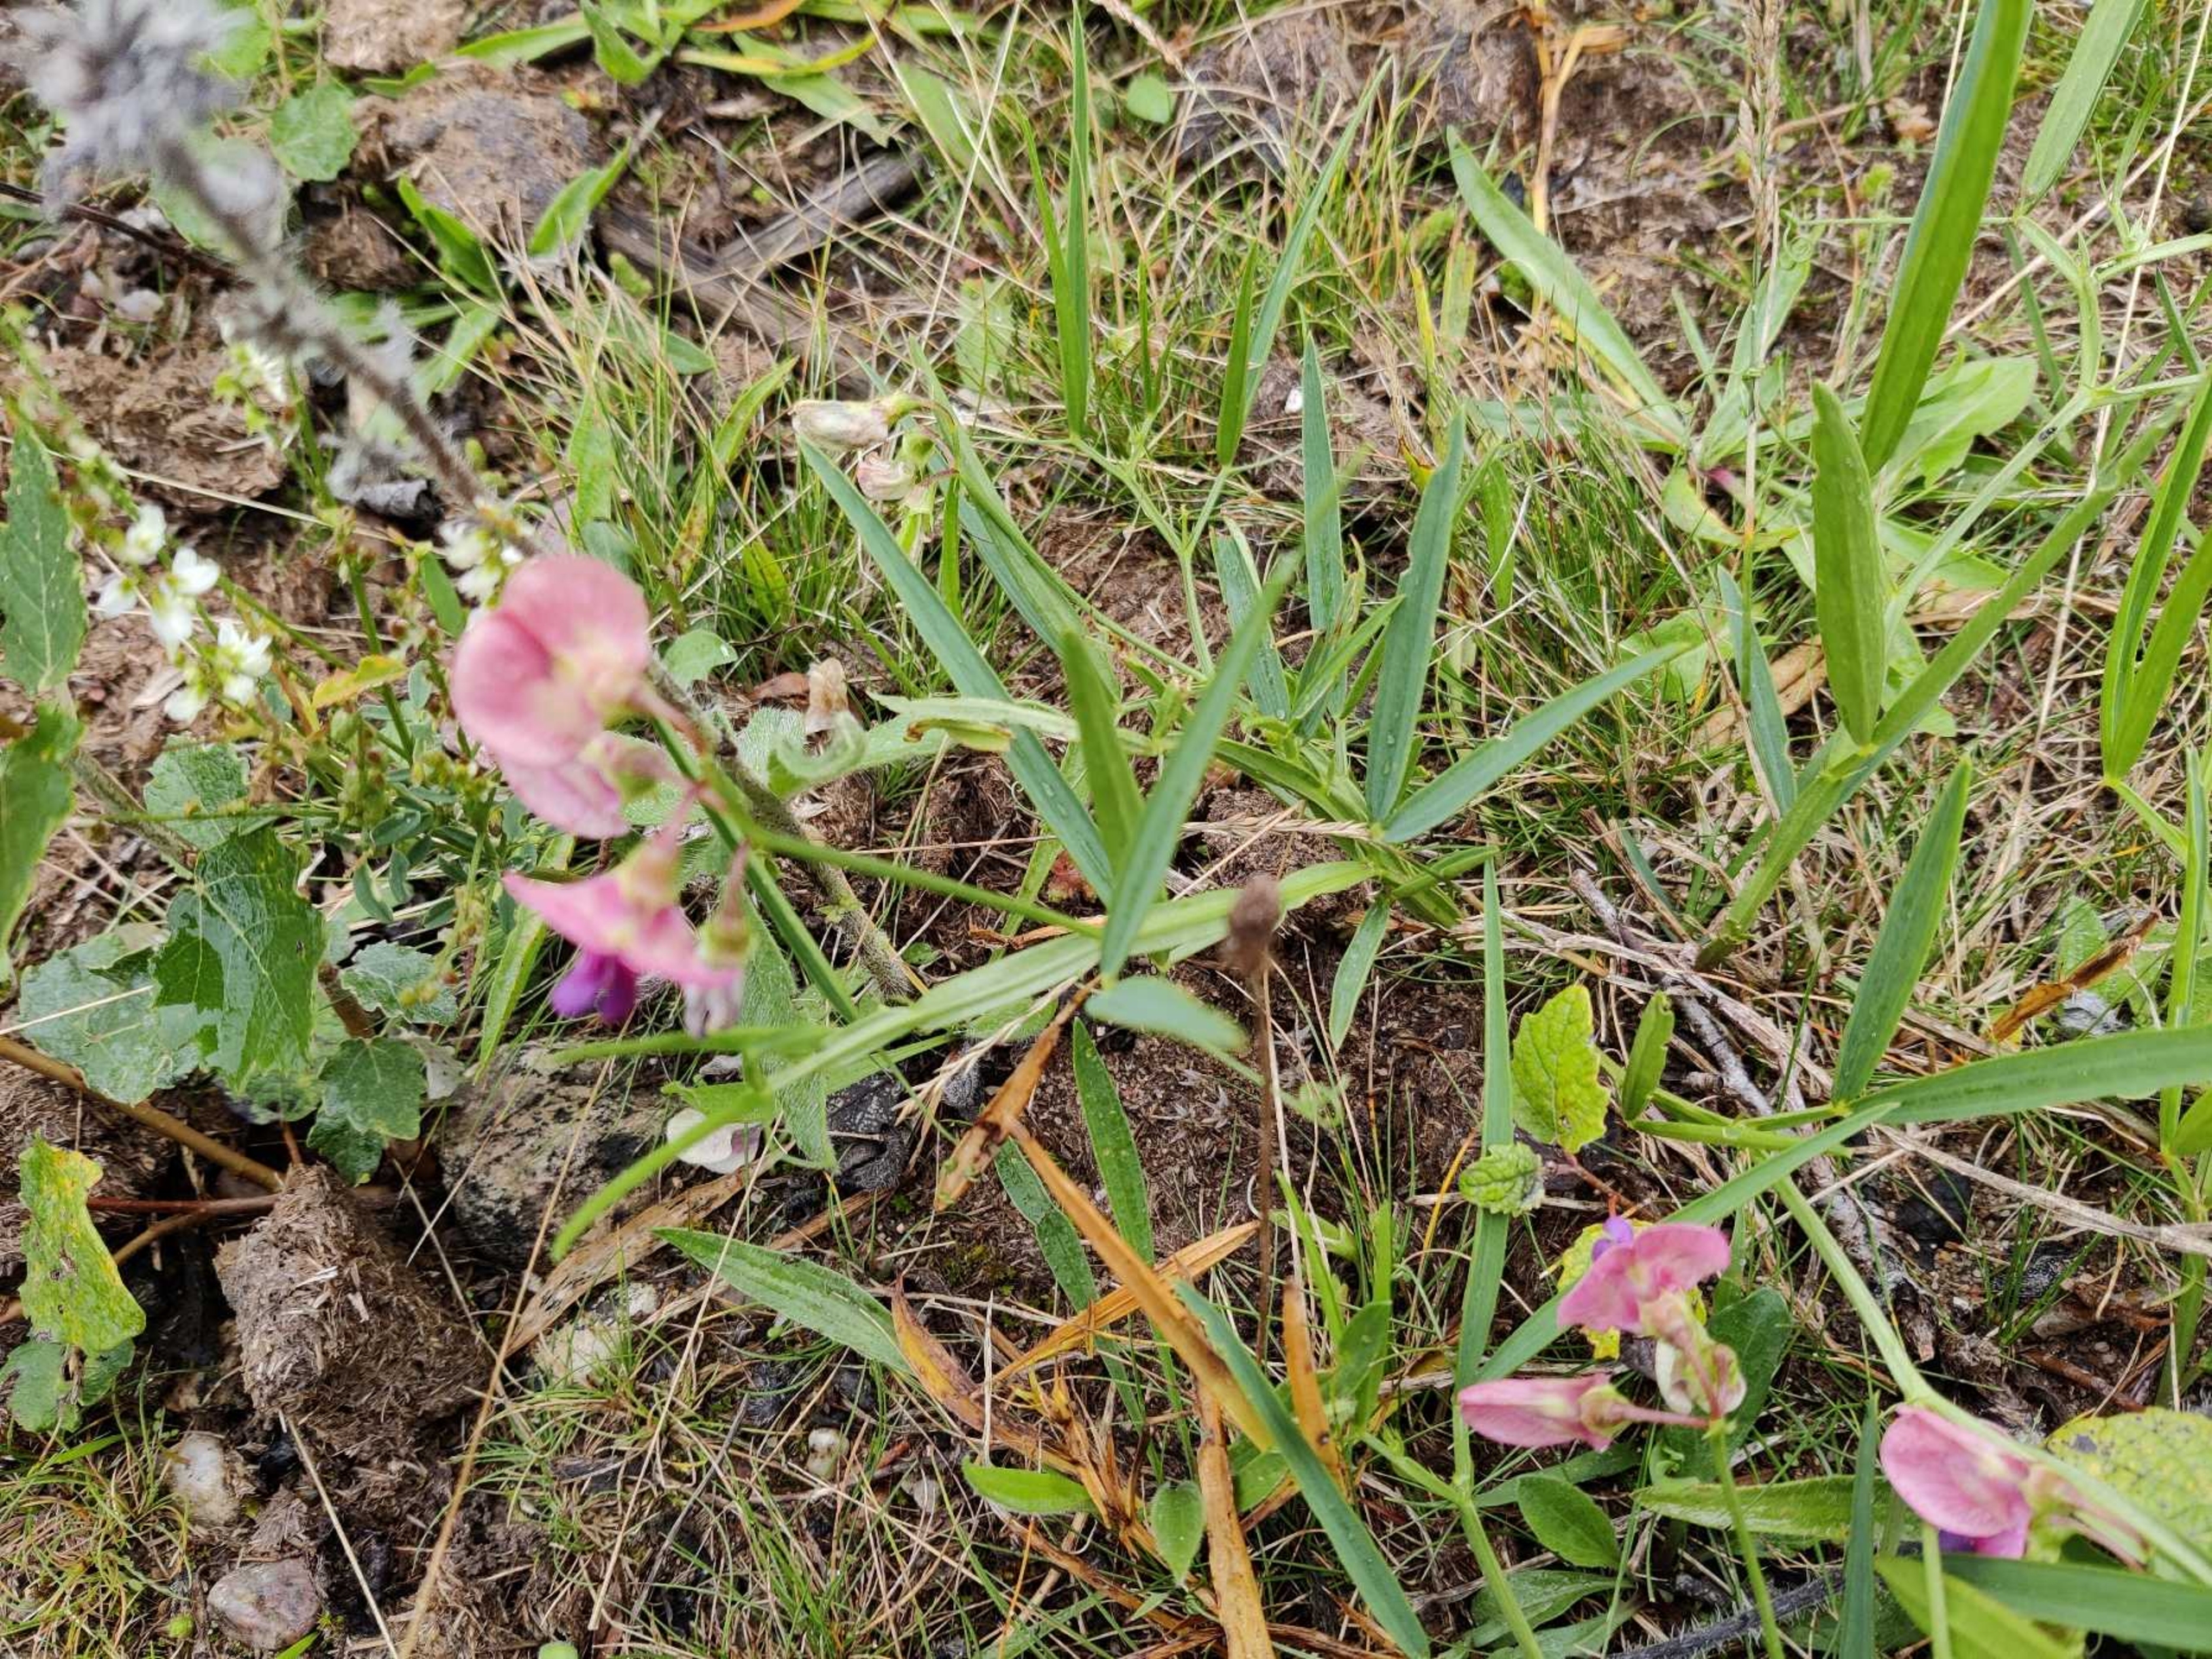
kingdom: Plantae
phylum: Tracheophyta
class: Magnoliopsida
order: Fabales
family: Fabaceae
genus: Lathyrus
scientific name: Lathyrus sylvestris
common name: Skov-fladbælg
